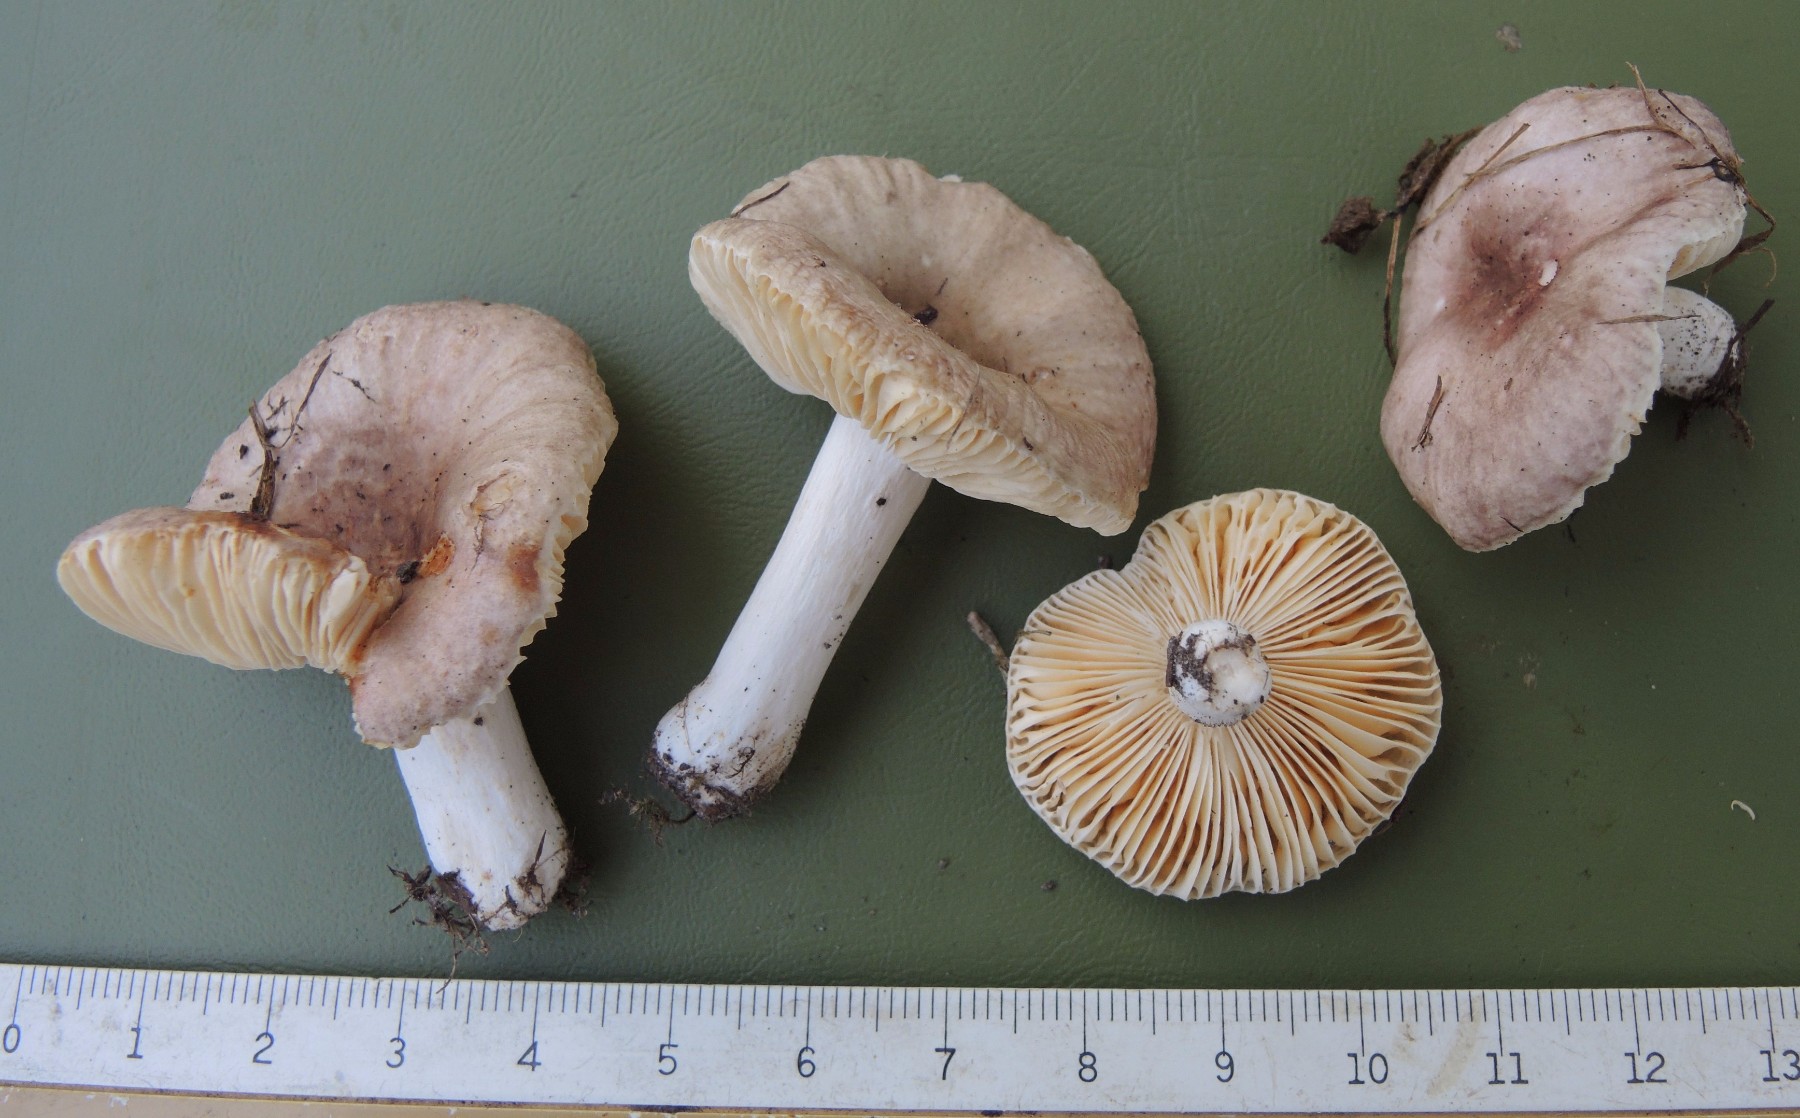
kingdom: Fungi
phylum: Basidiomycota
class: Agaricomycetes
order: Russulales
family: Russulaceae
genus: Russula
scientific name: Russula odorata
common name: duft-skørhat
